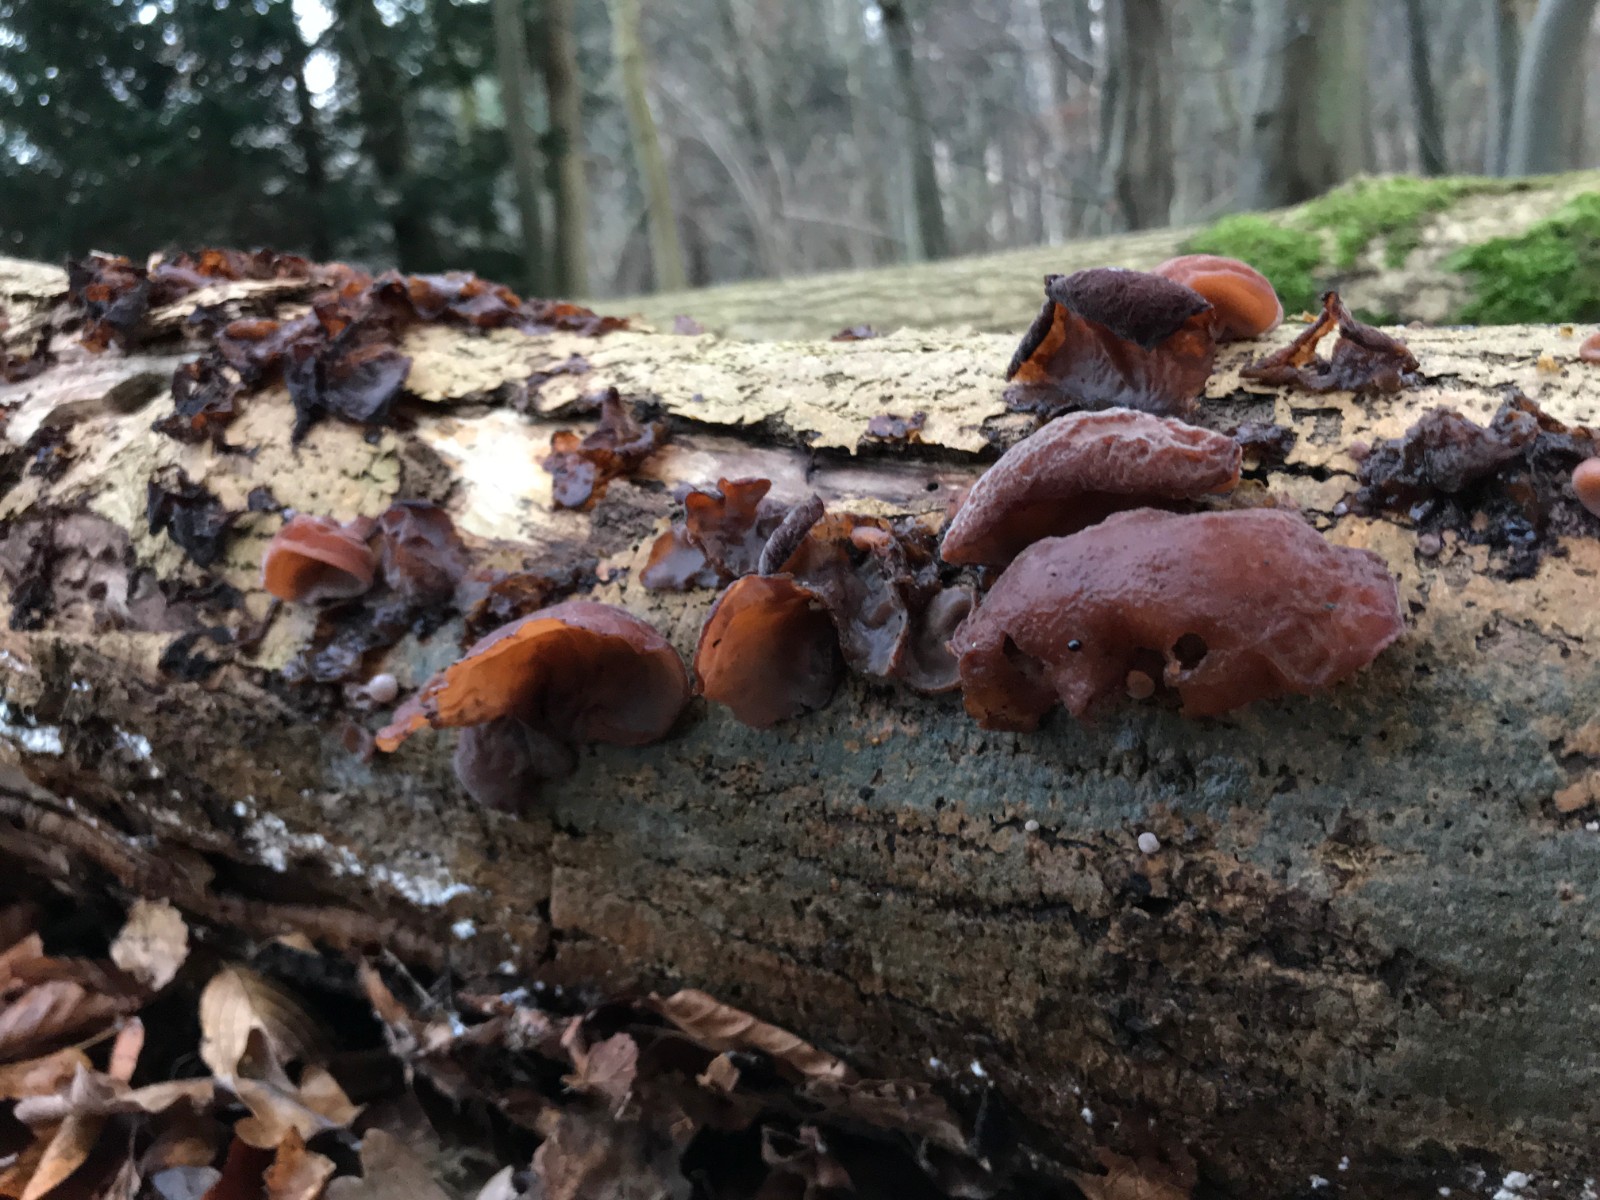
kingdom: Fungi
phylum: Basidiomycota
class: Agaricomycetes
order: Auriculariales
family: Auriculariaceae
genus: Auricularia
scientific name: Auricularia auricula-judae
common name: almindelig judasøre
